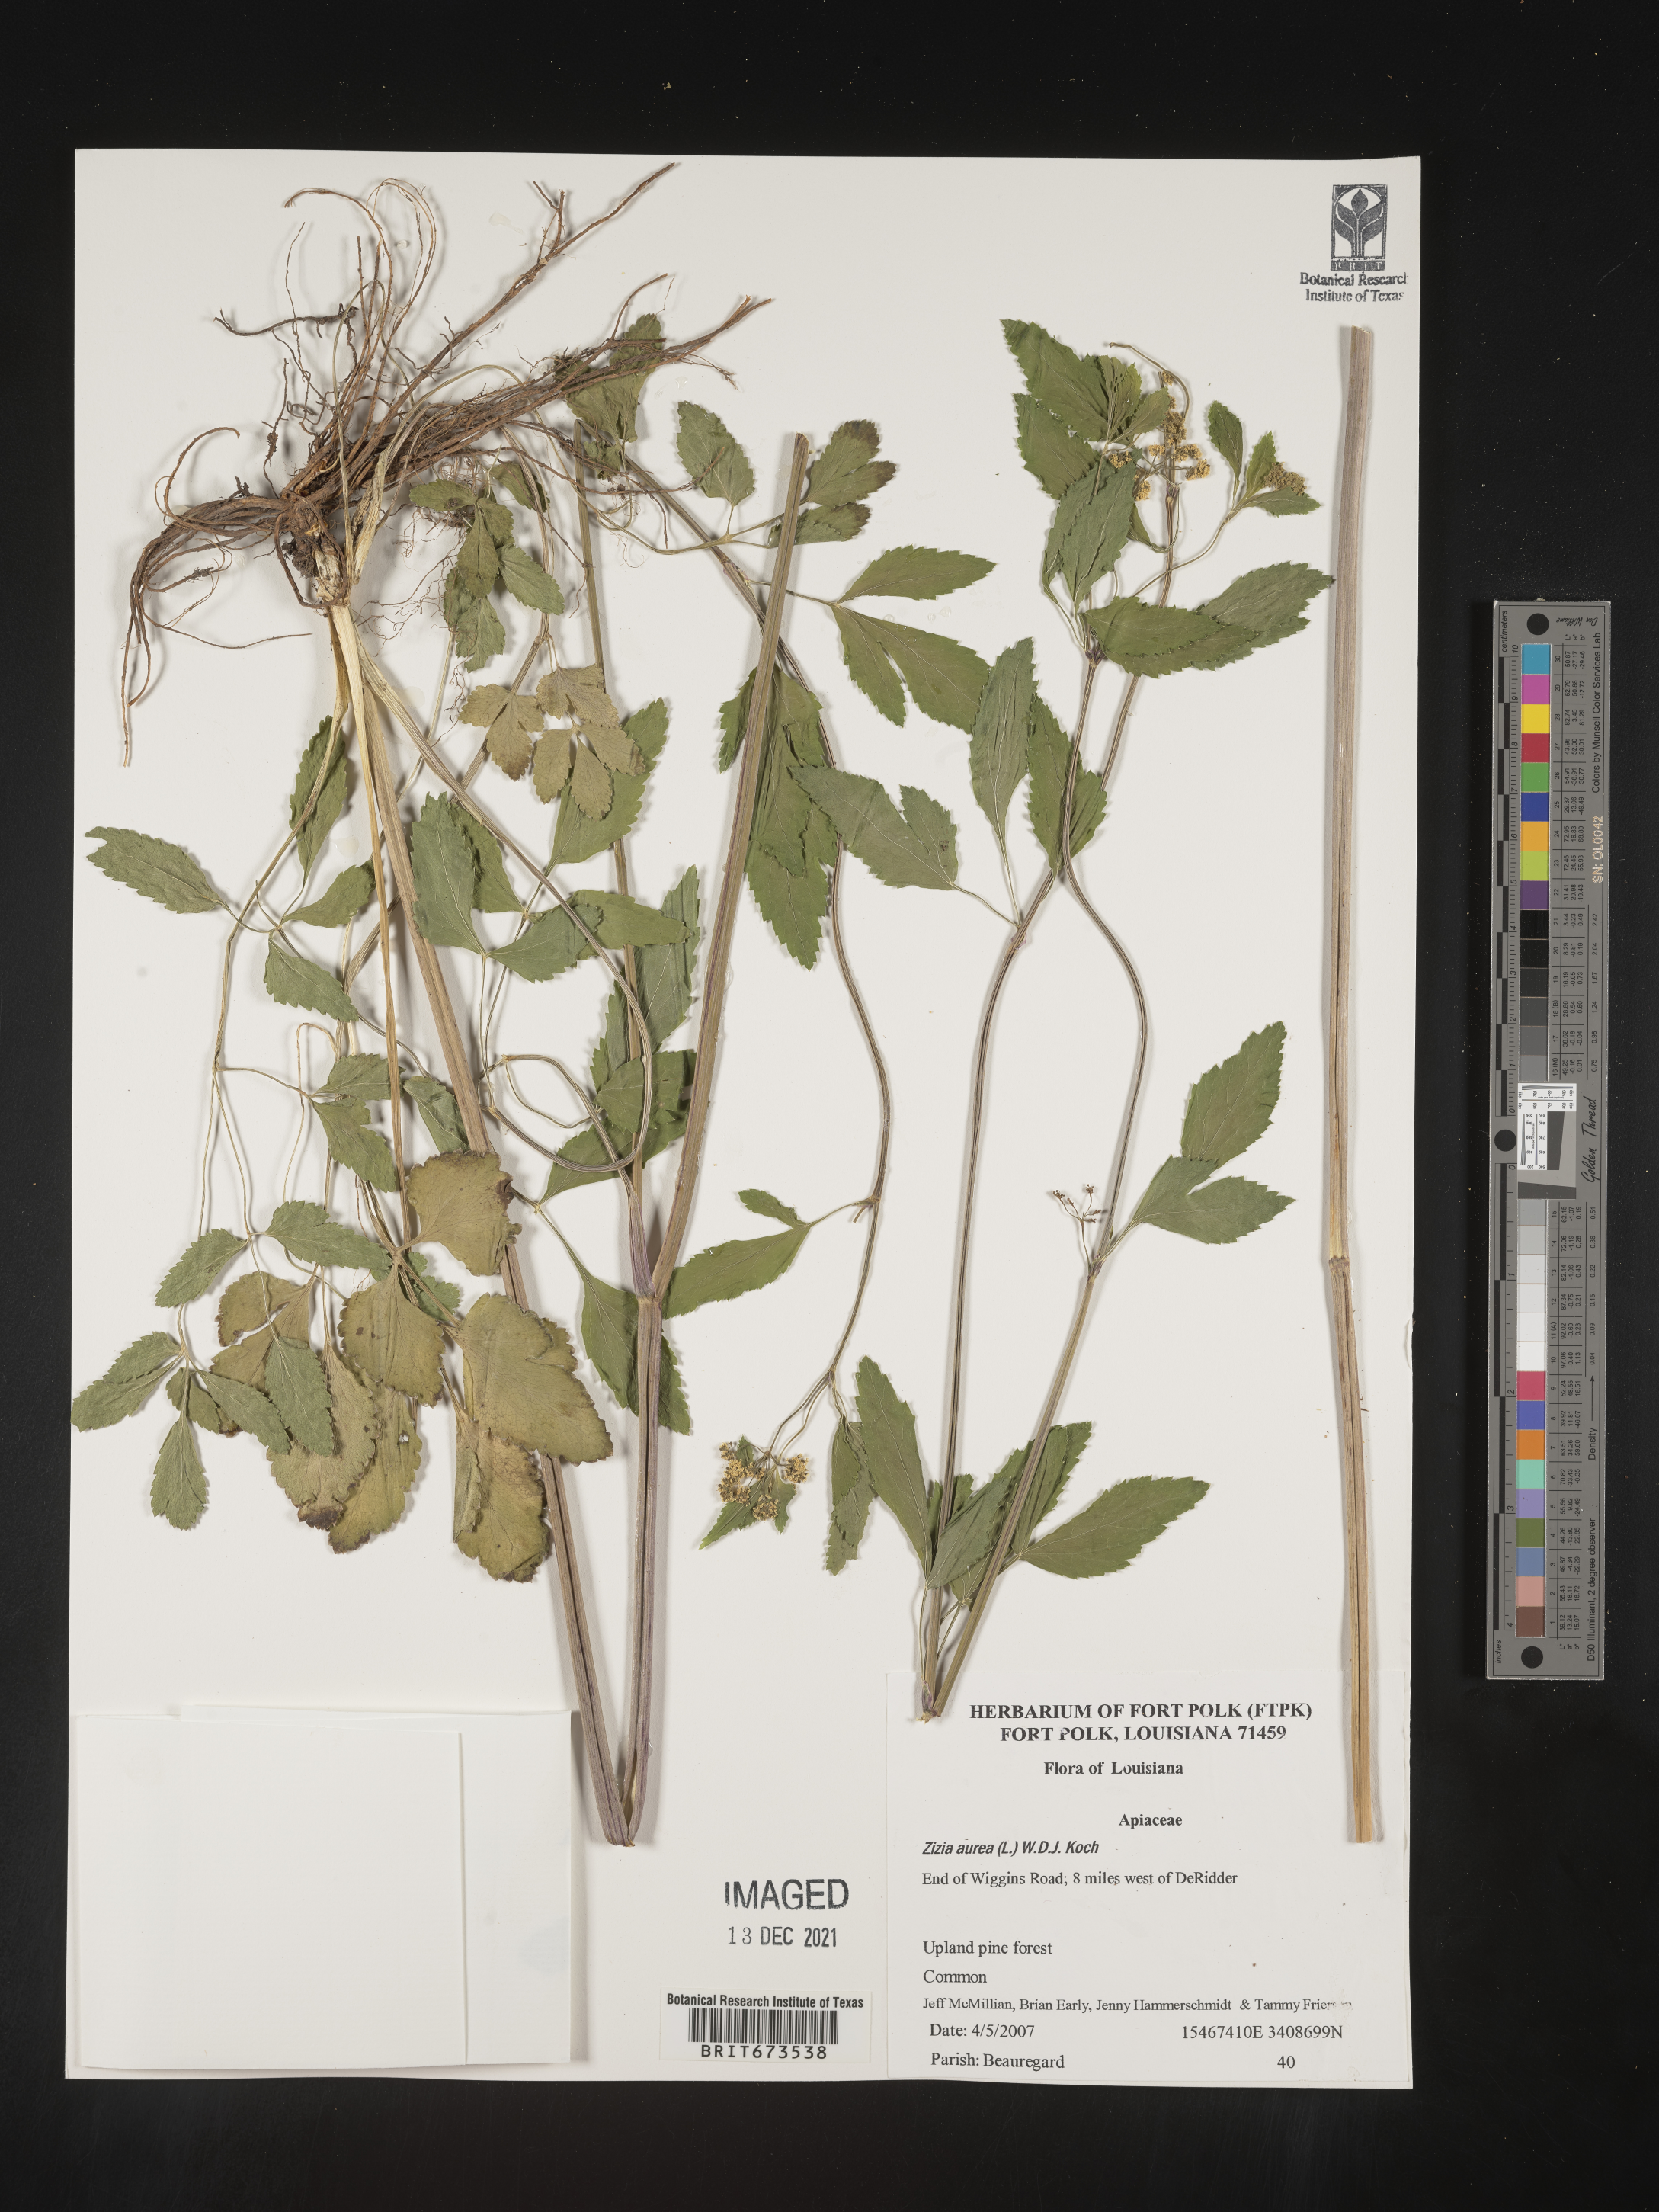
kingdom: Plantae
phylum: Tracheophyta
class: Magnoliopsida
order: Apiales
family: Apiaceae
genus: Zizia
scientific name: Zizia aurea
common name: Golden alexanders
